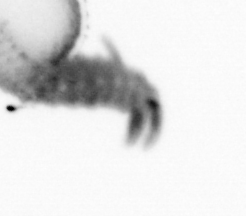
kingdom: Animalia
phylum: Annelida
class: Polychaeta
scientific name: Polychaeta
